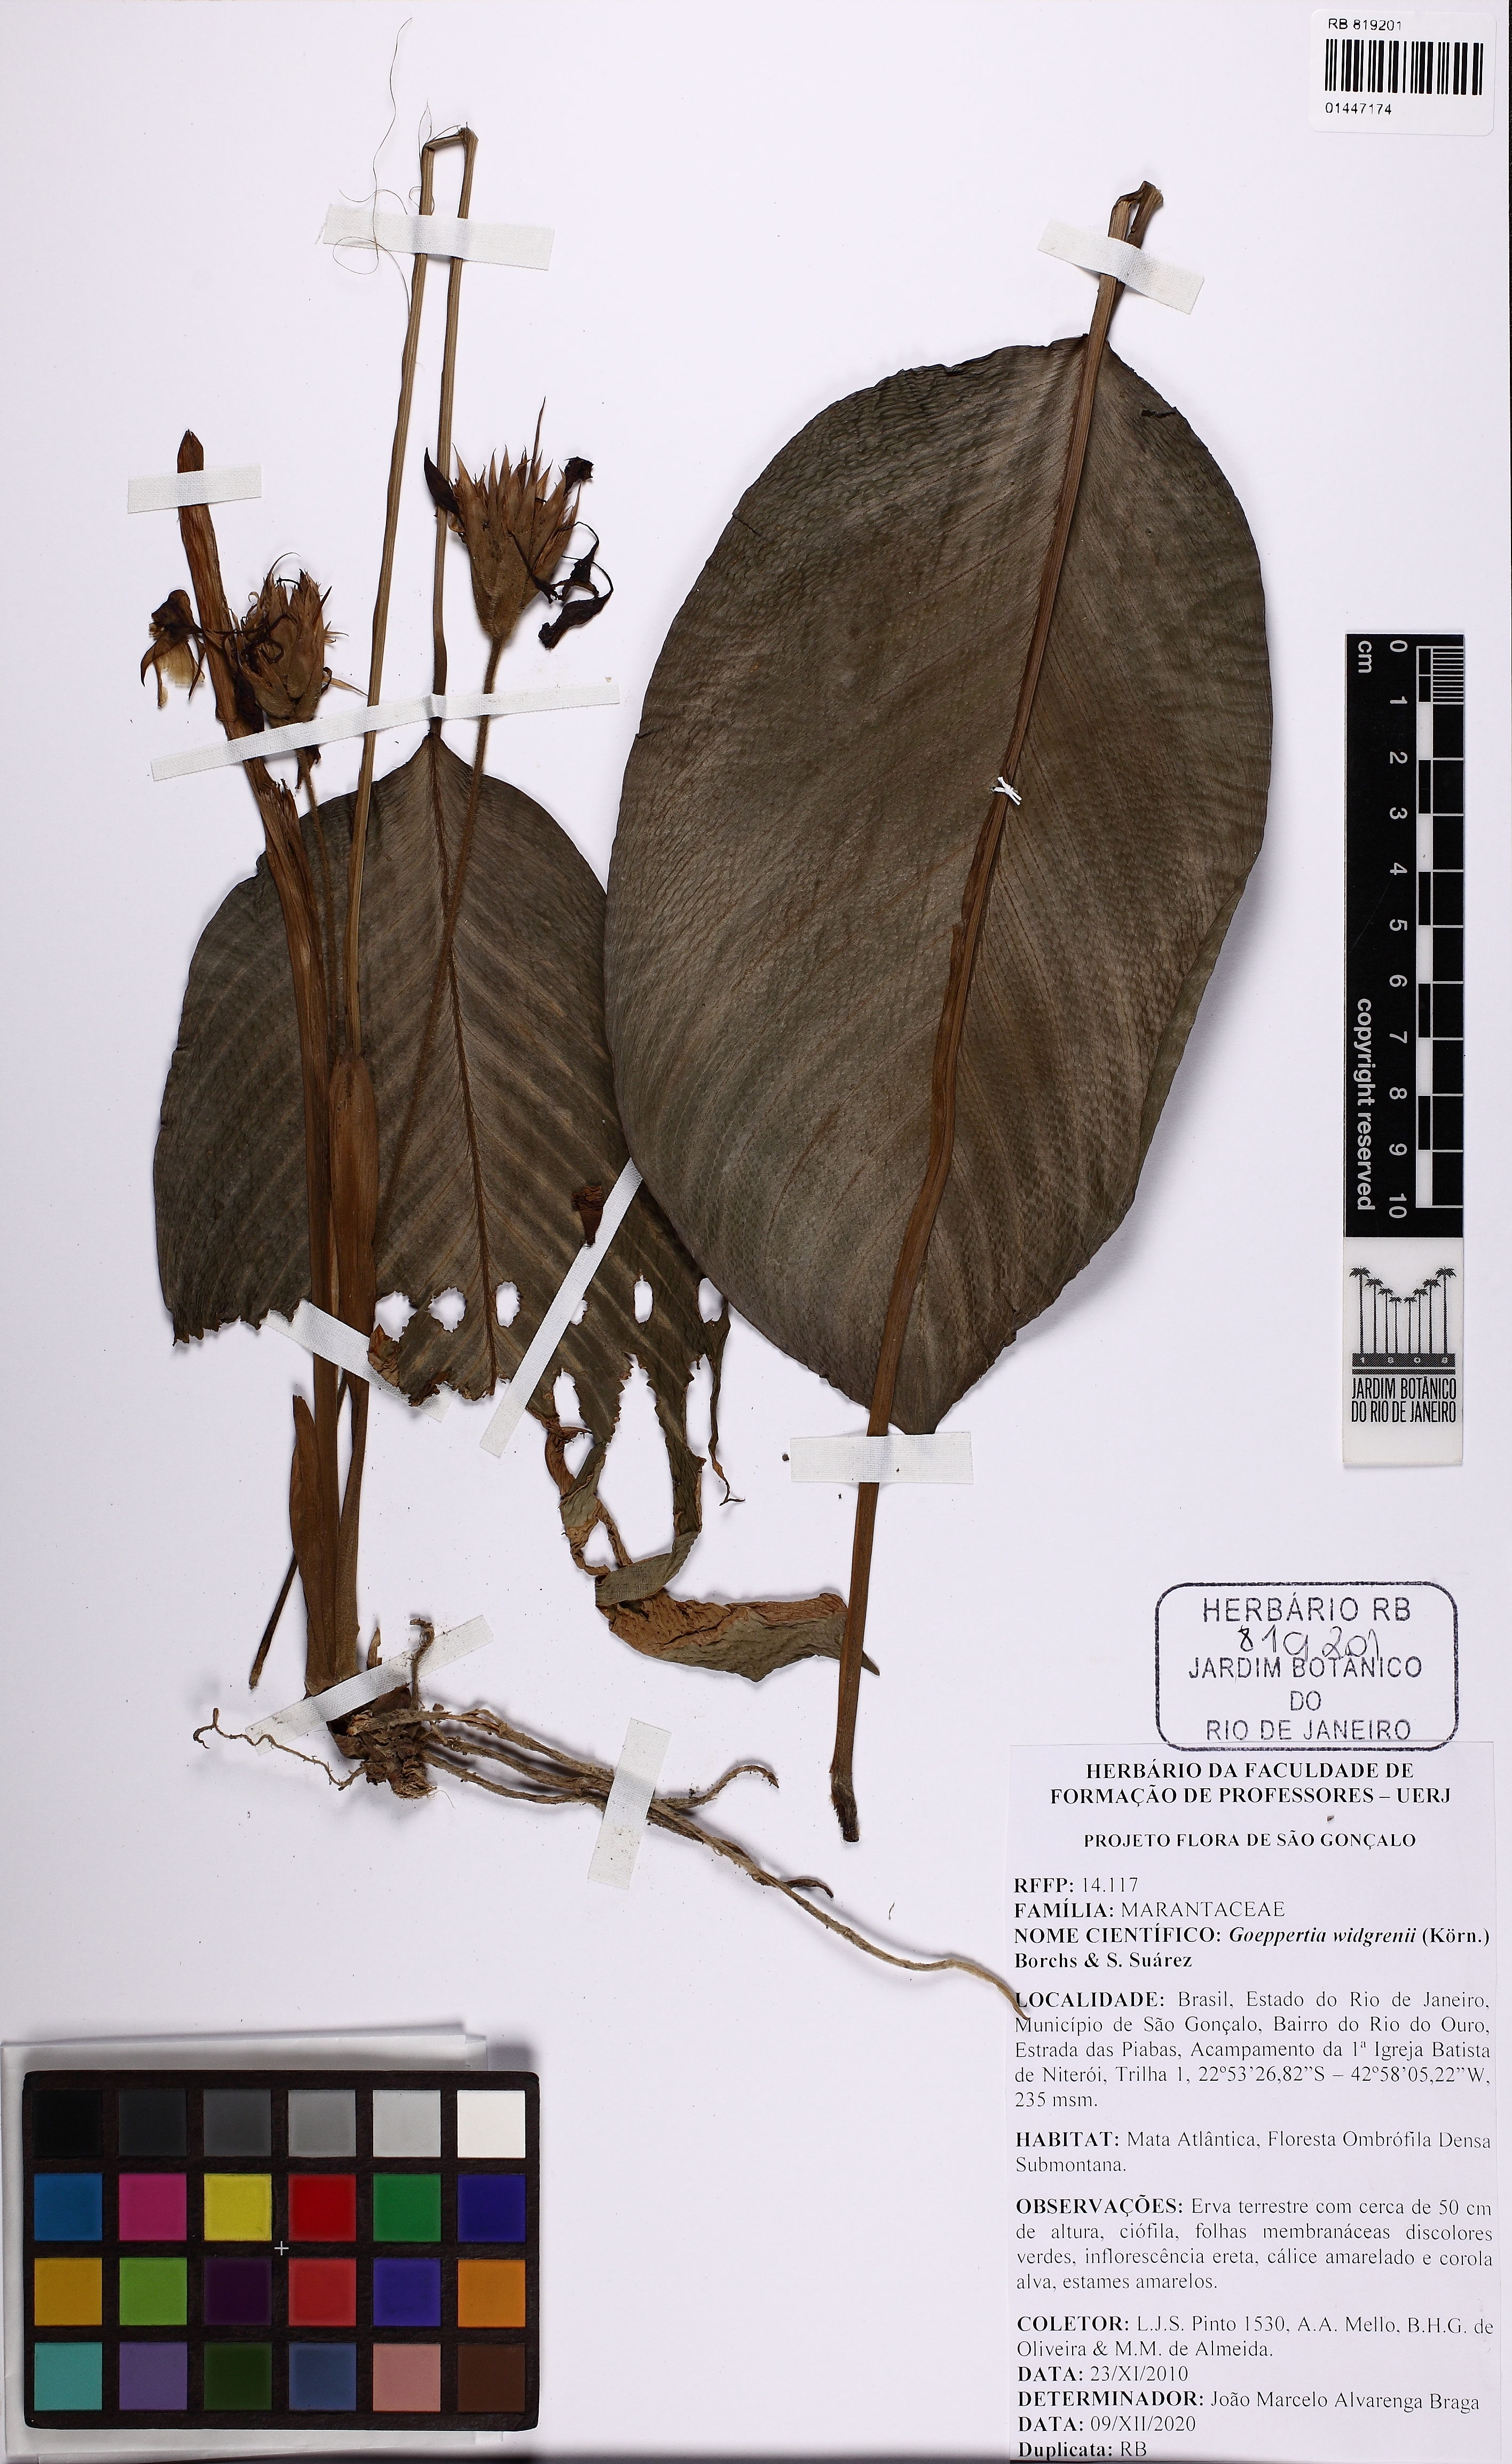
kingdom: Plantae
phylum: Tracheophyta
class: Liliopsida
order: Zingiberales
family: Marantaceae
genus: Goeppertia
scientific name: Goeppertia widgrenii
